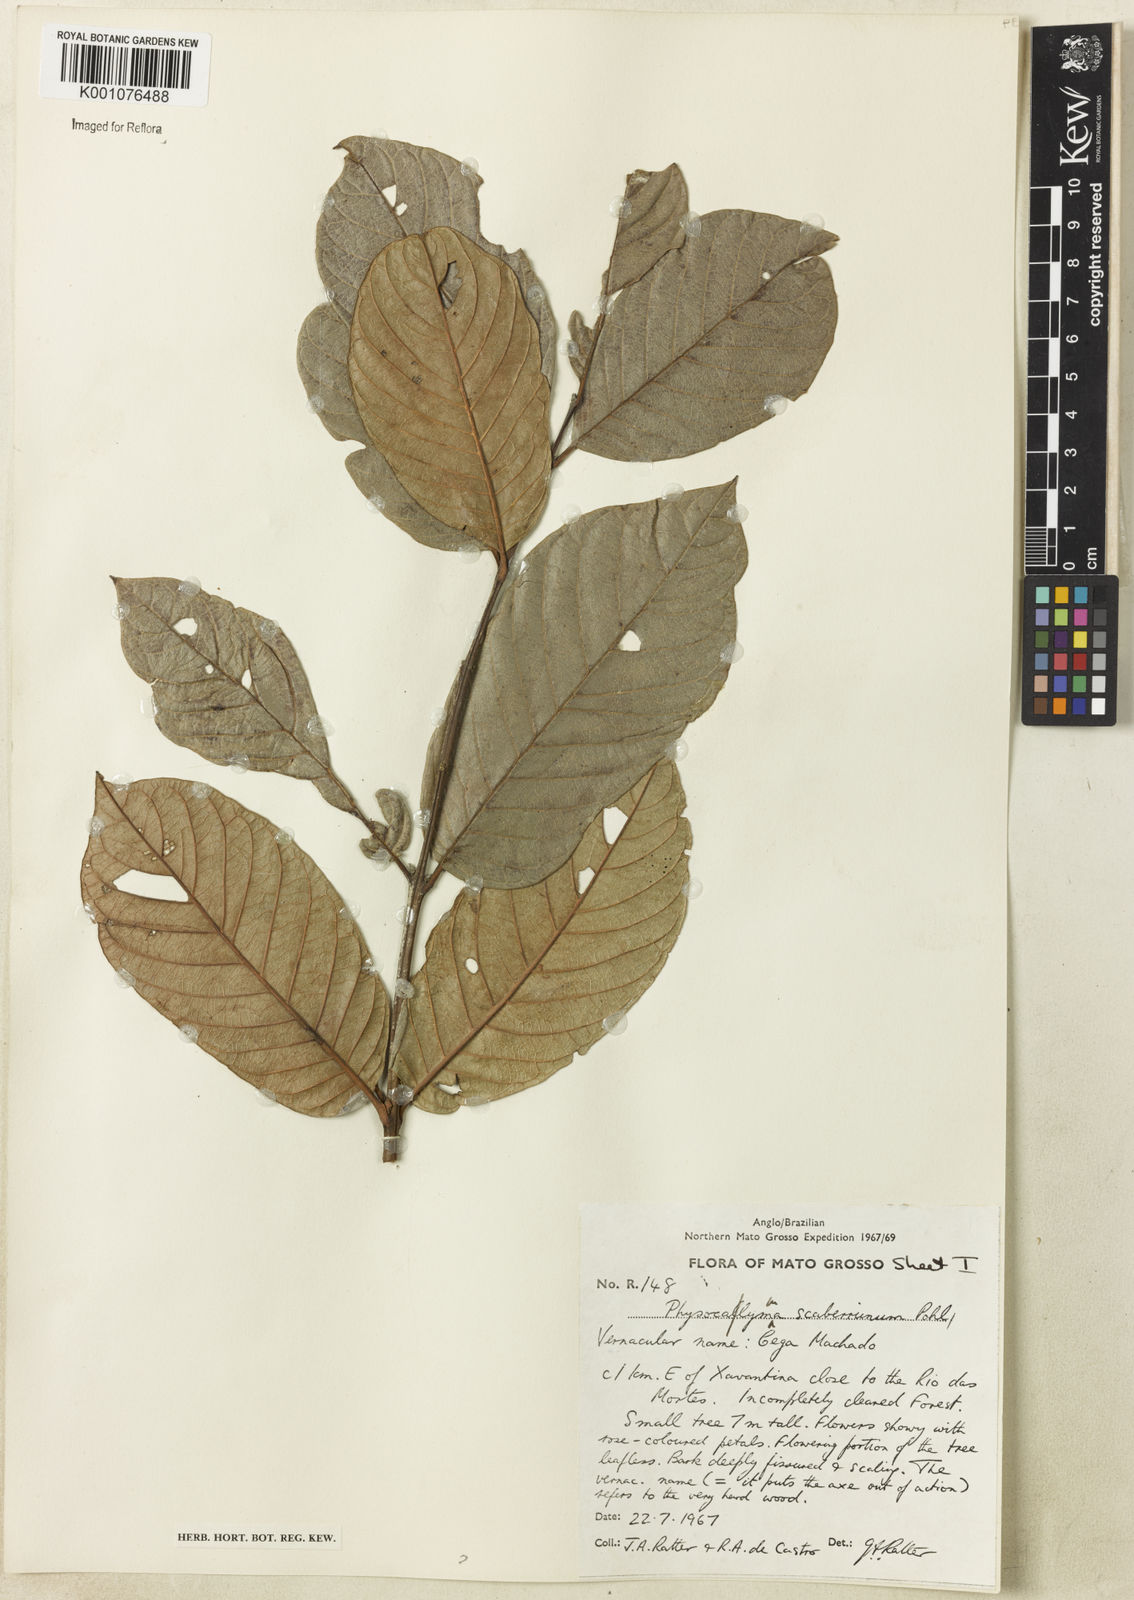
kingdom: Plantae
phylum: Tracheophyta
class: Magnoliopsida
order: Myrtales
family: Lythraceae
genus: Physocalymma
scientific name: Physocalymma scaberrimum
